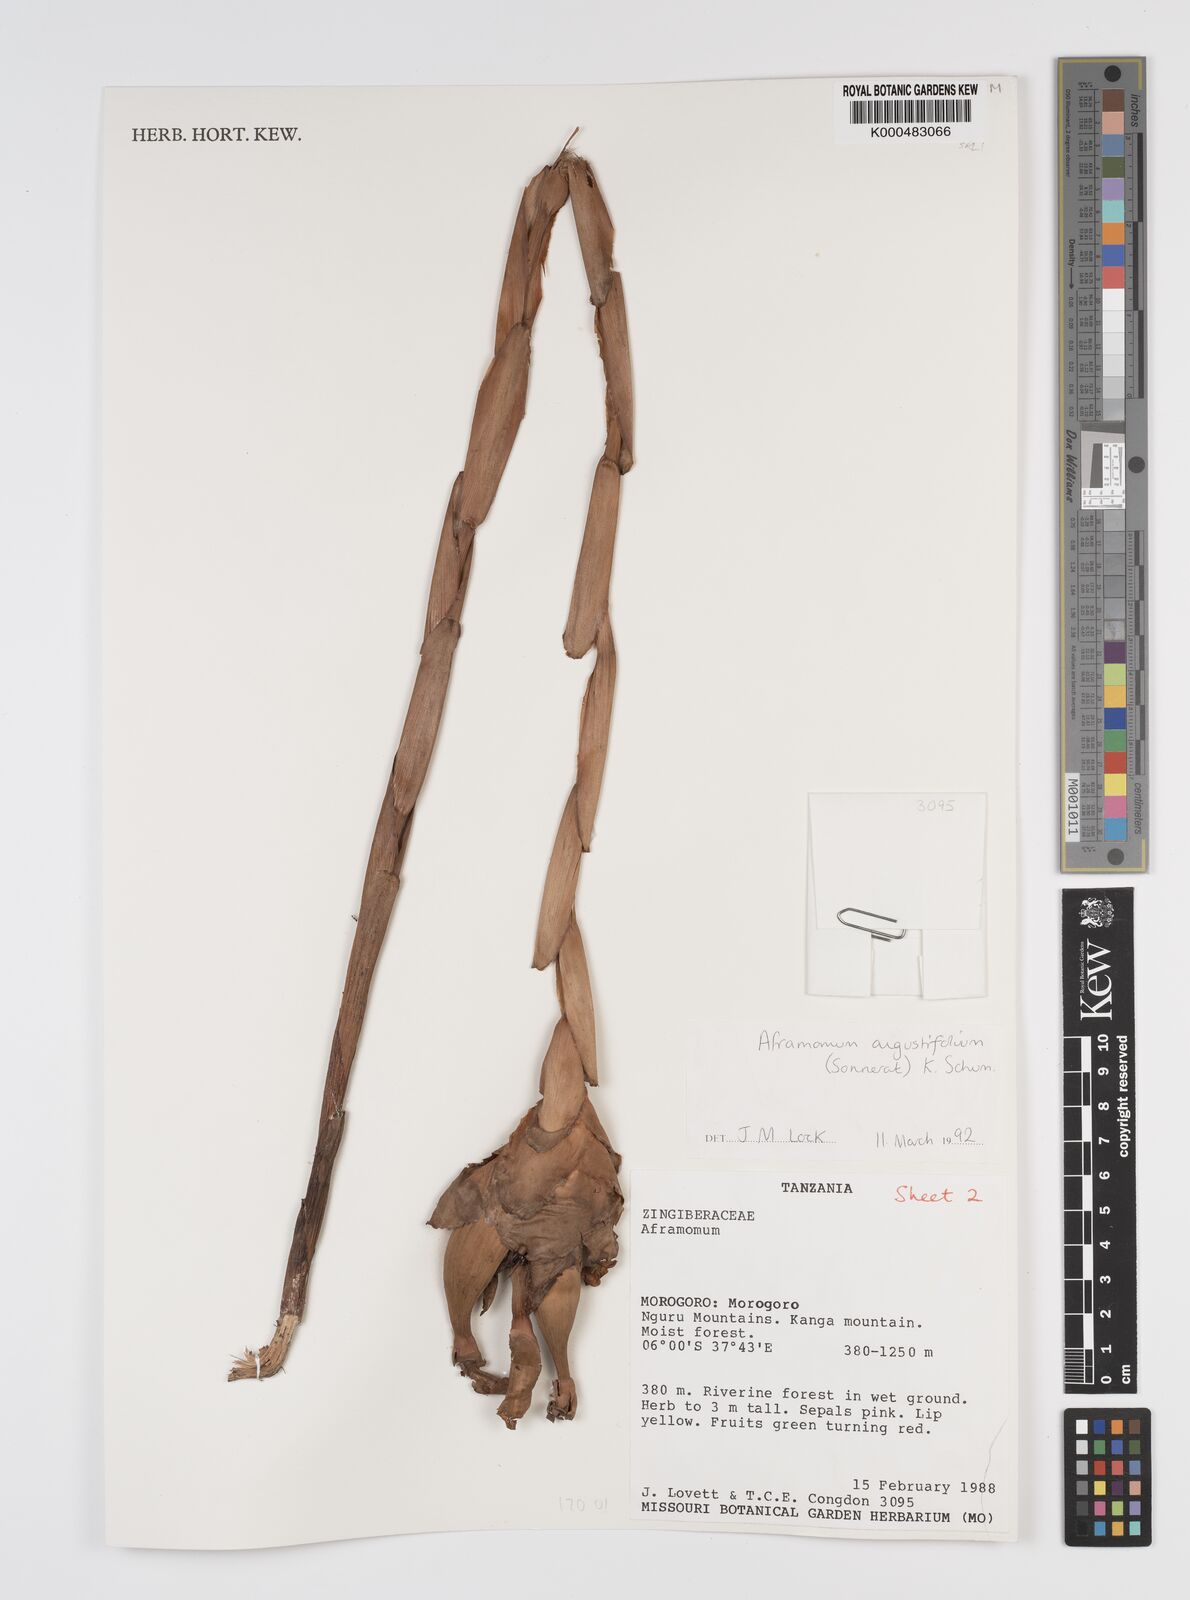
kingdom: Plantae
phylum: Tracheophyta
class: Liliopsida
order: Zingiberales
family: Zingiberaceae
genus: Aframomum
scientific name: Aframomum angustifolium
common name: Guinea grains
